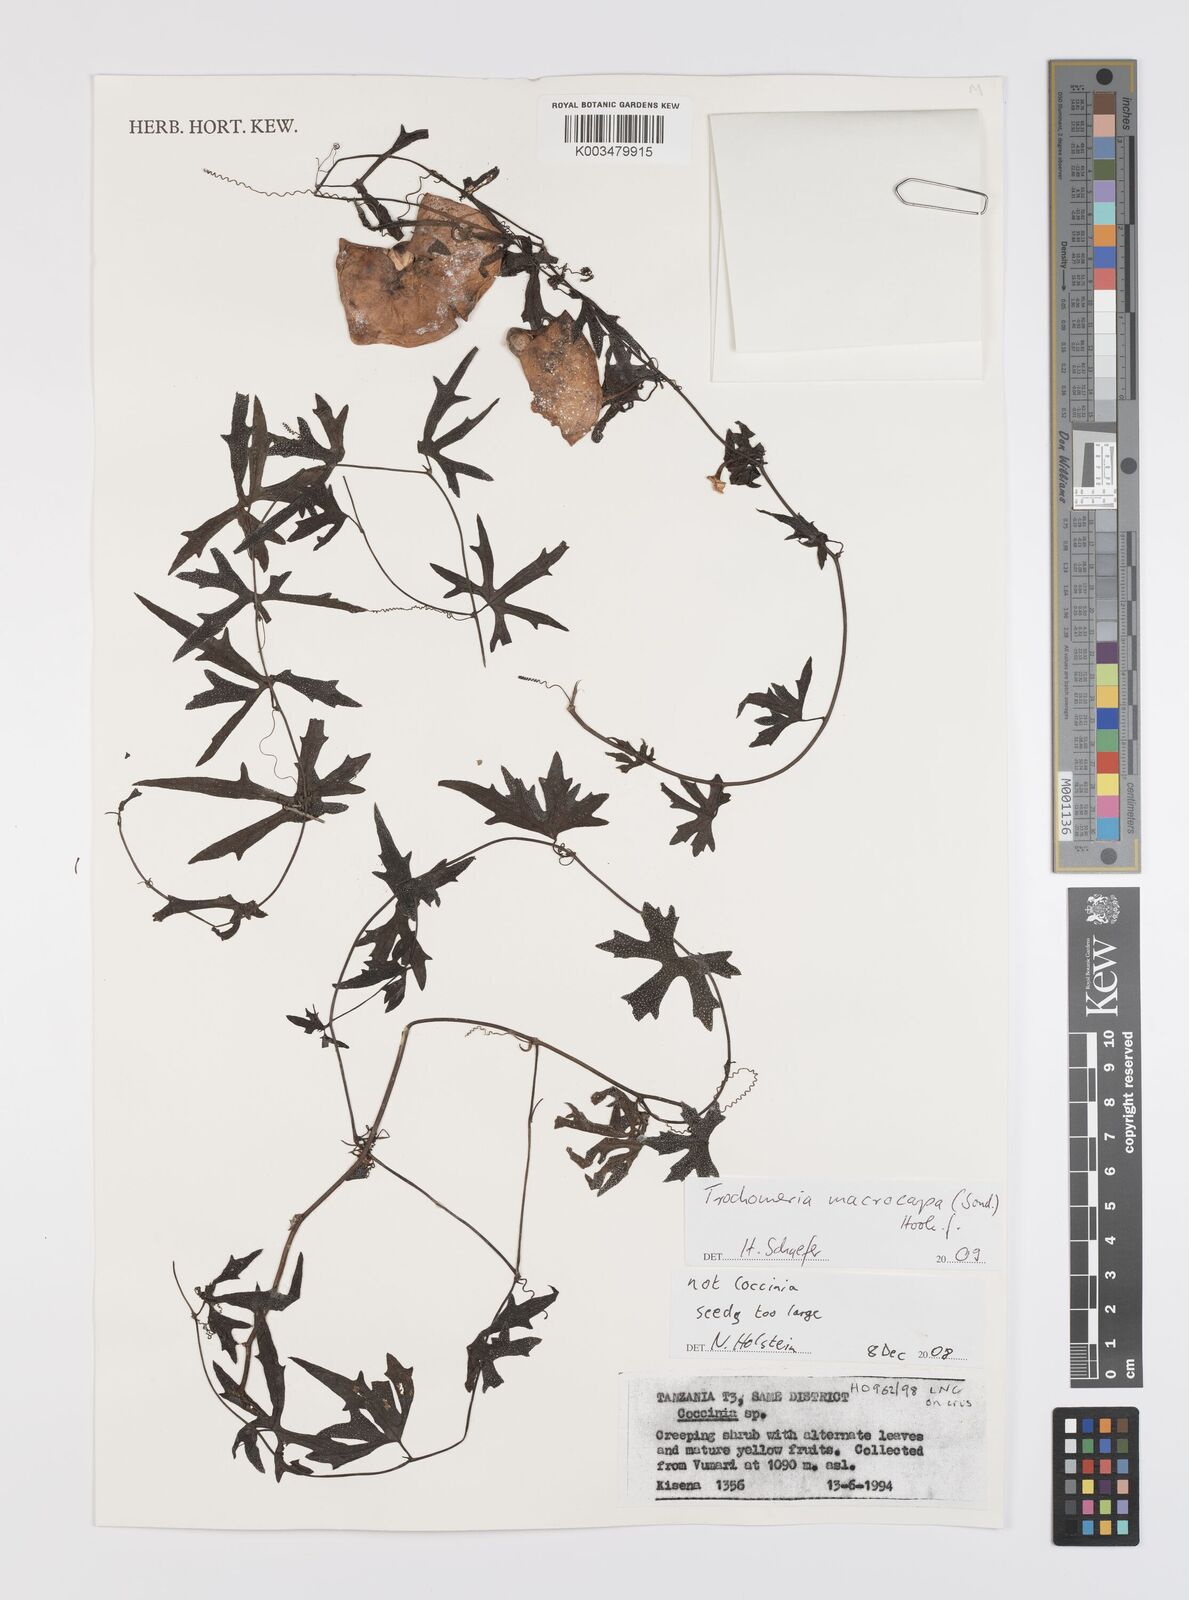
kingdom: Plantae
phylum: Tracheophyta
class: Magnoliopsida
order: Cucurbitales
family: Cucurbitaceae
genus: Trochomeria
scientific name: Trochomeria macrocarpa
